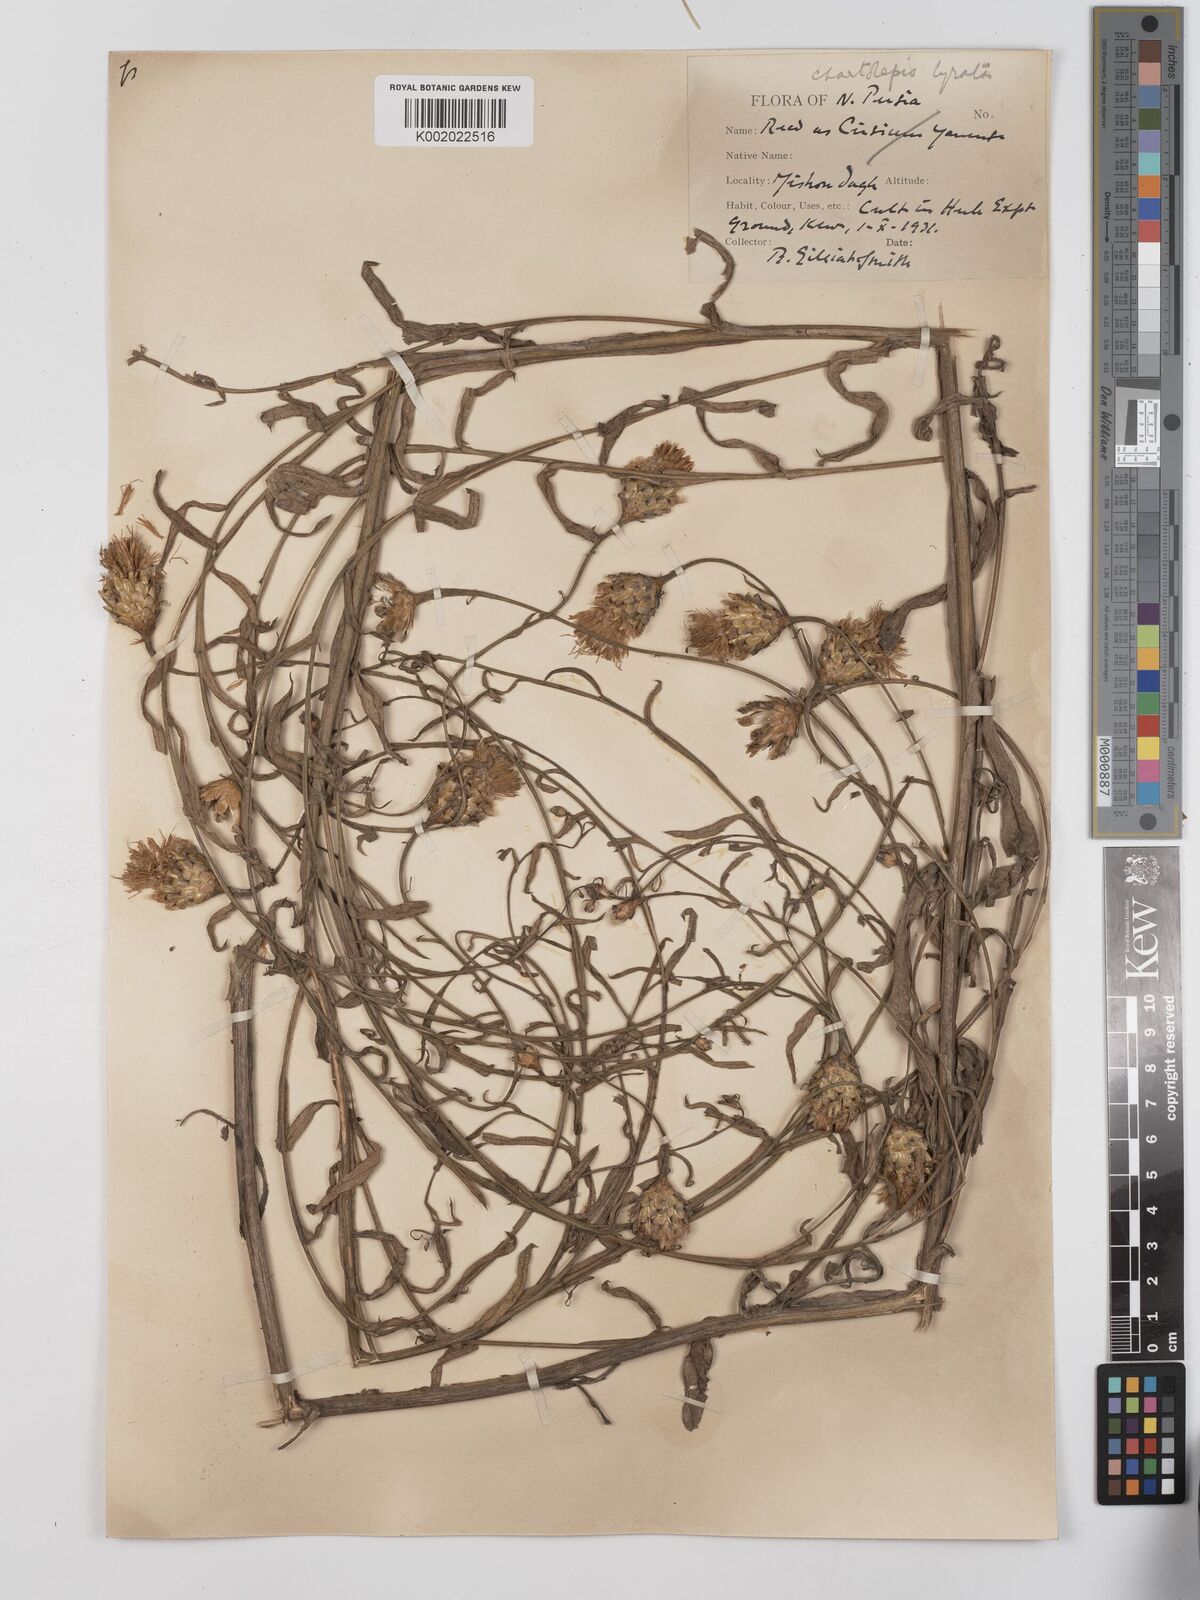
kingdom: Plantae
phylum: Tracheophyta
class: Magnoliopsida
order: Asterales
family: Asteraceae
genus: Centaurea
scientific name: Centaurea pterocaula
